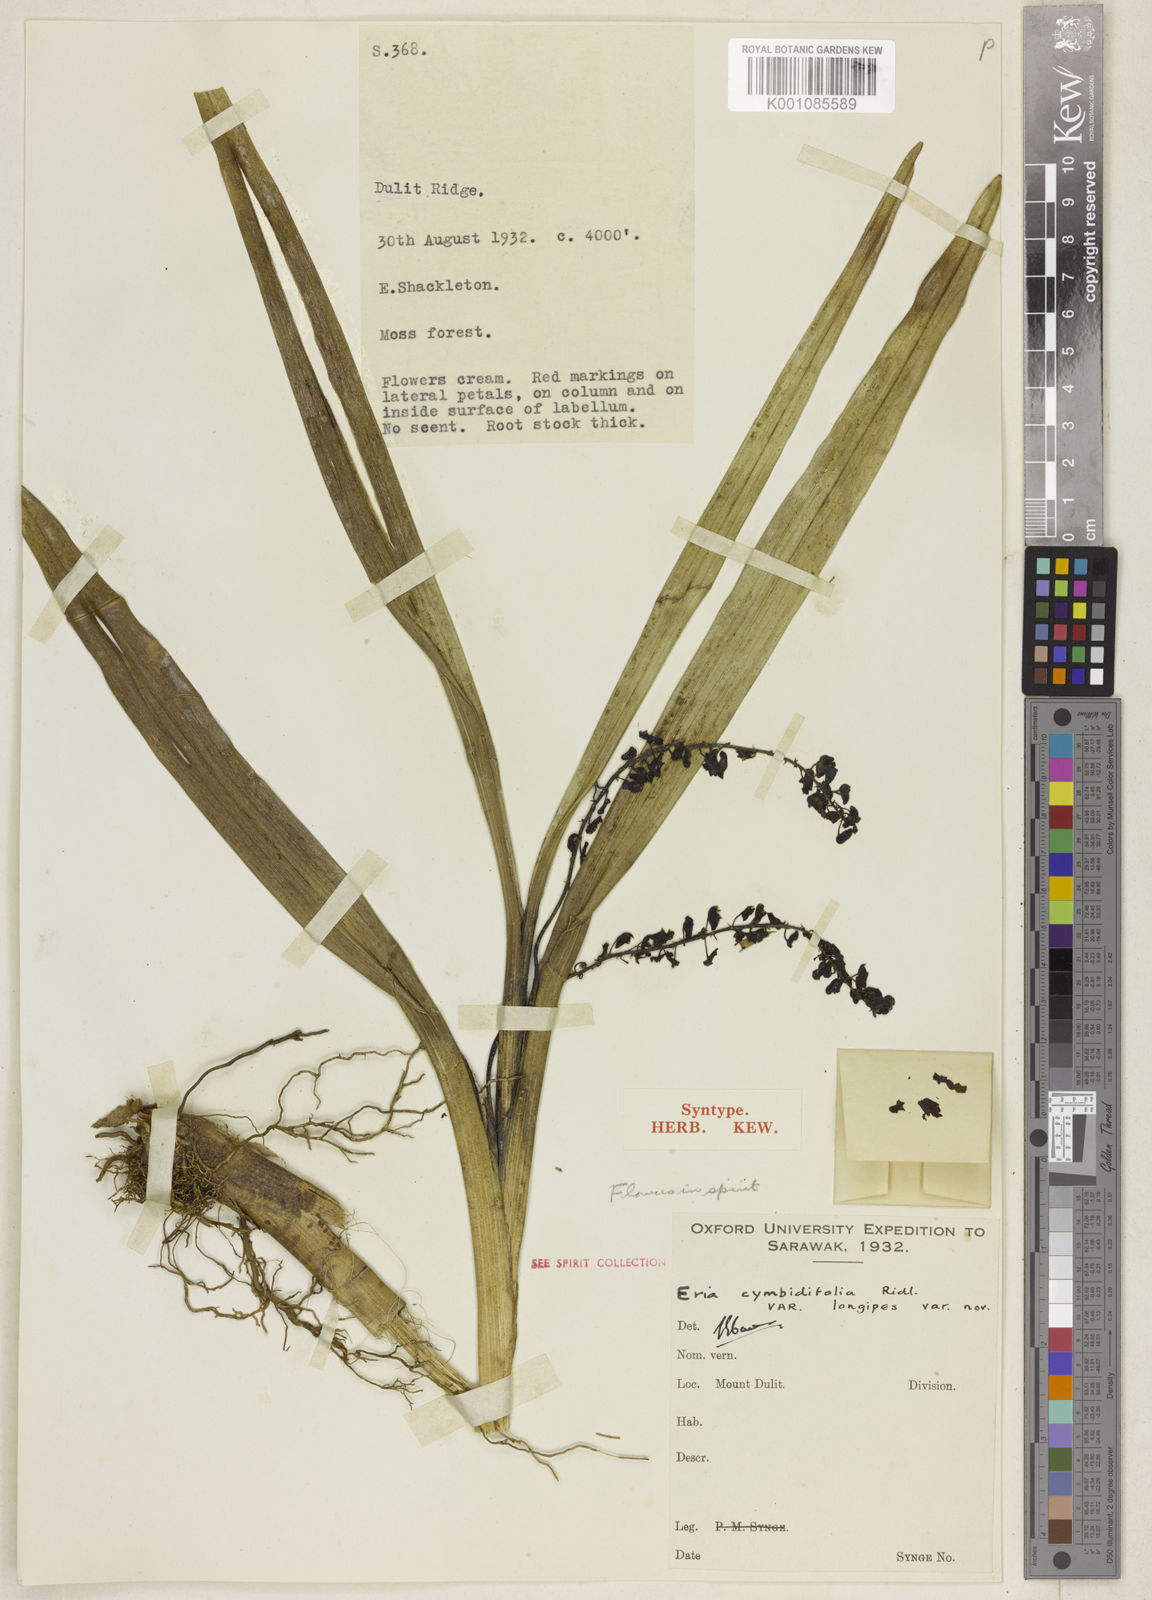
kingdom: Plantae
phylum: Tracheophyta
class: Liliopsida
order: Asparagales
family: Orchidaceae
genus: Cymboglossum
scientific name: Cymboglossum pseudocymbiforme
